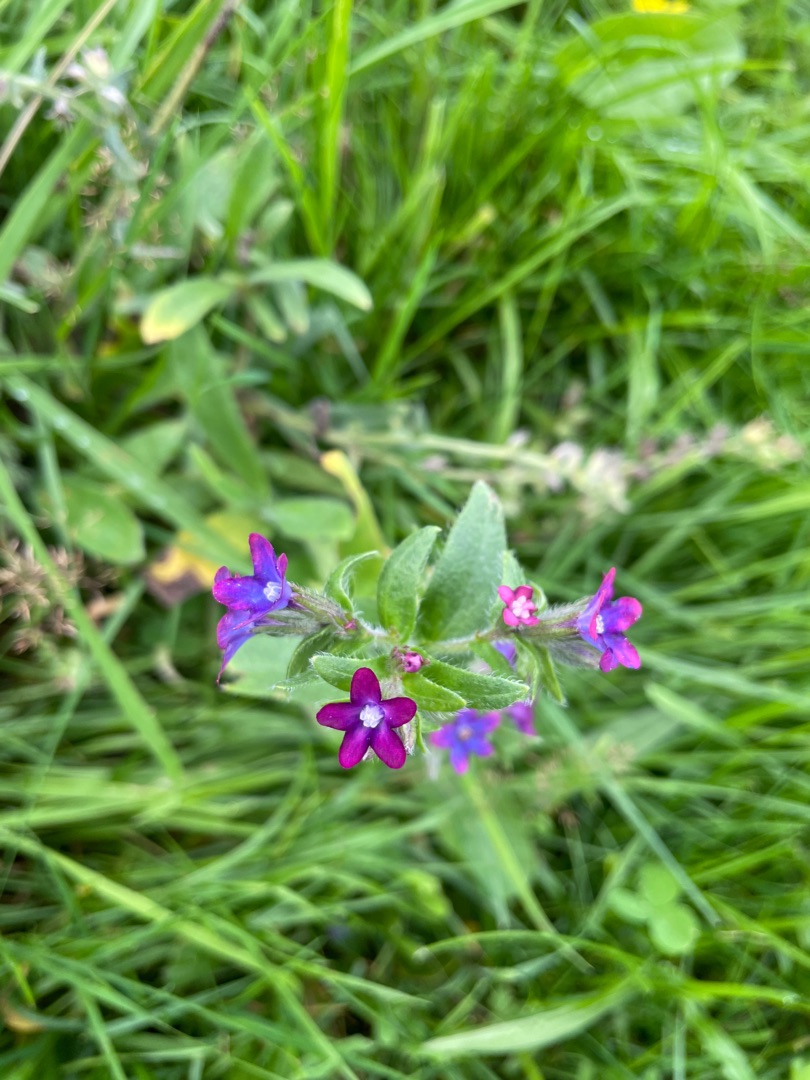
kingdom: Plantae
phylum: Tracheophyta
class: Magnoliopsida
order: Boraginales
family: Boraginaceae
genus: Anchusa
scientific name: Anchusa officinalis
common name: Læge-oksetunge
